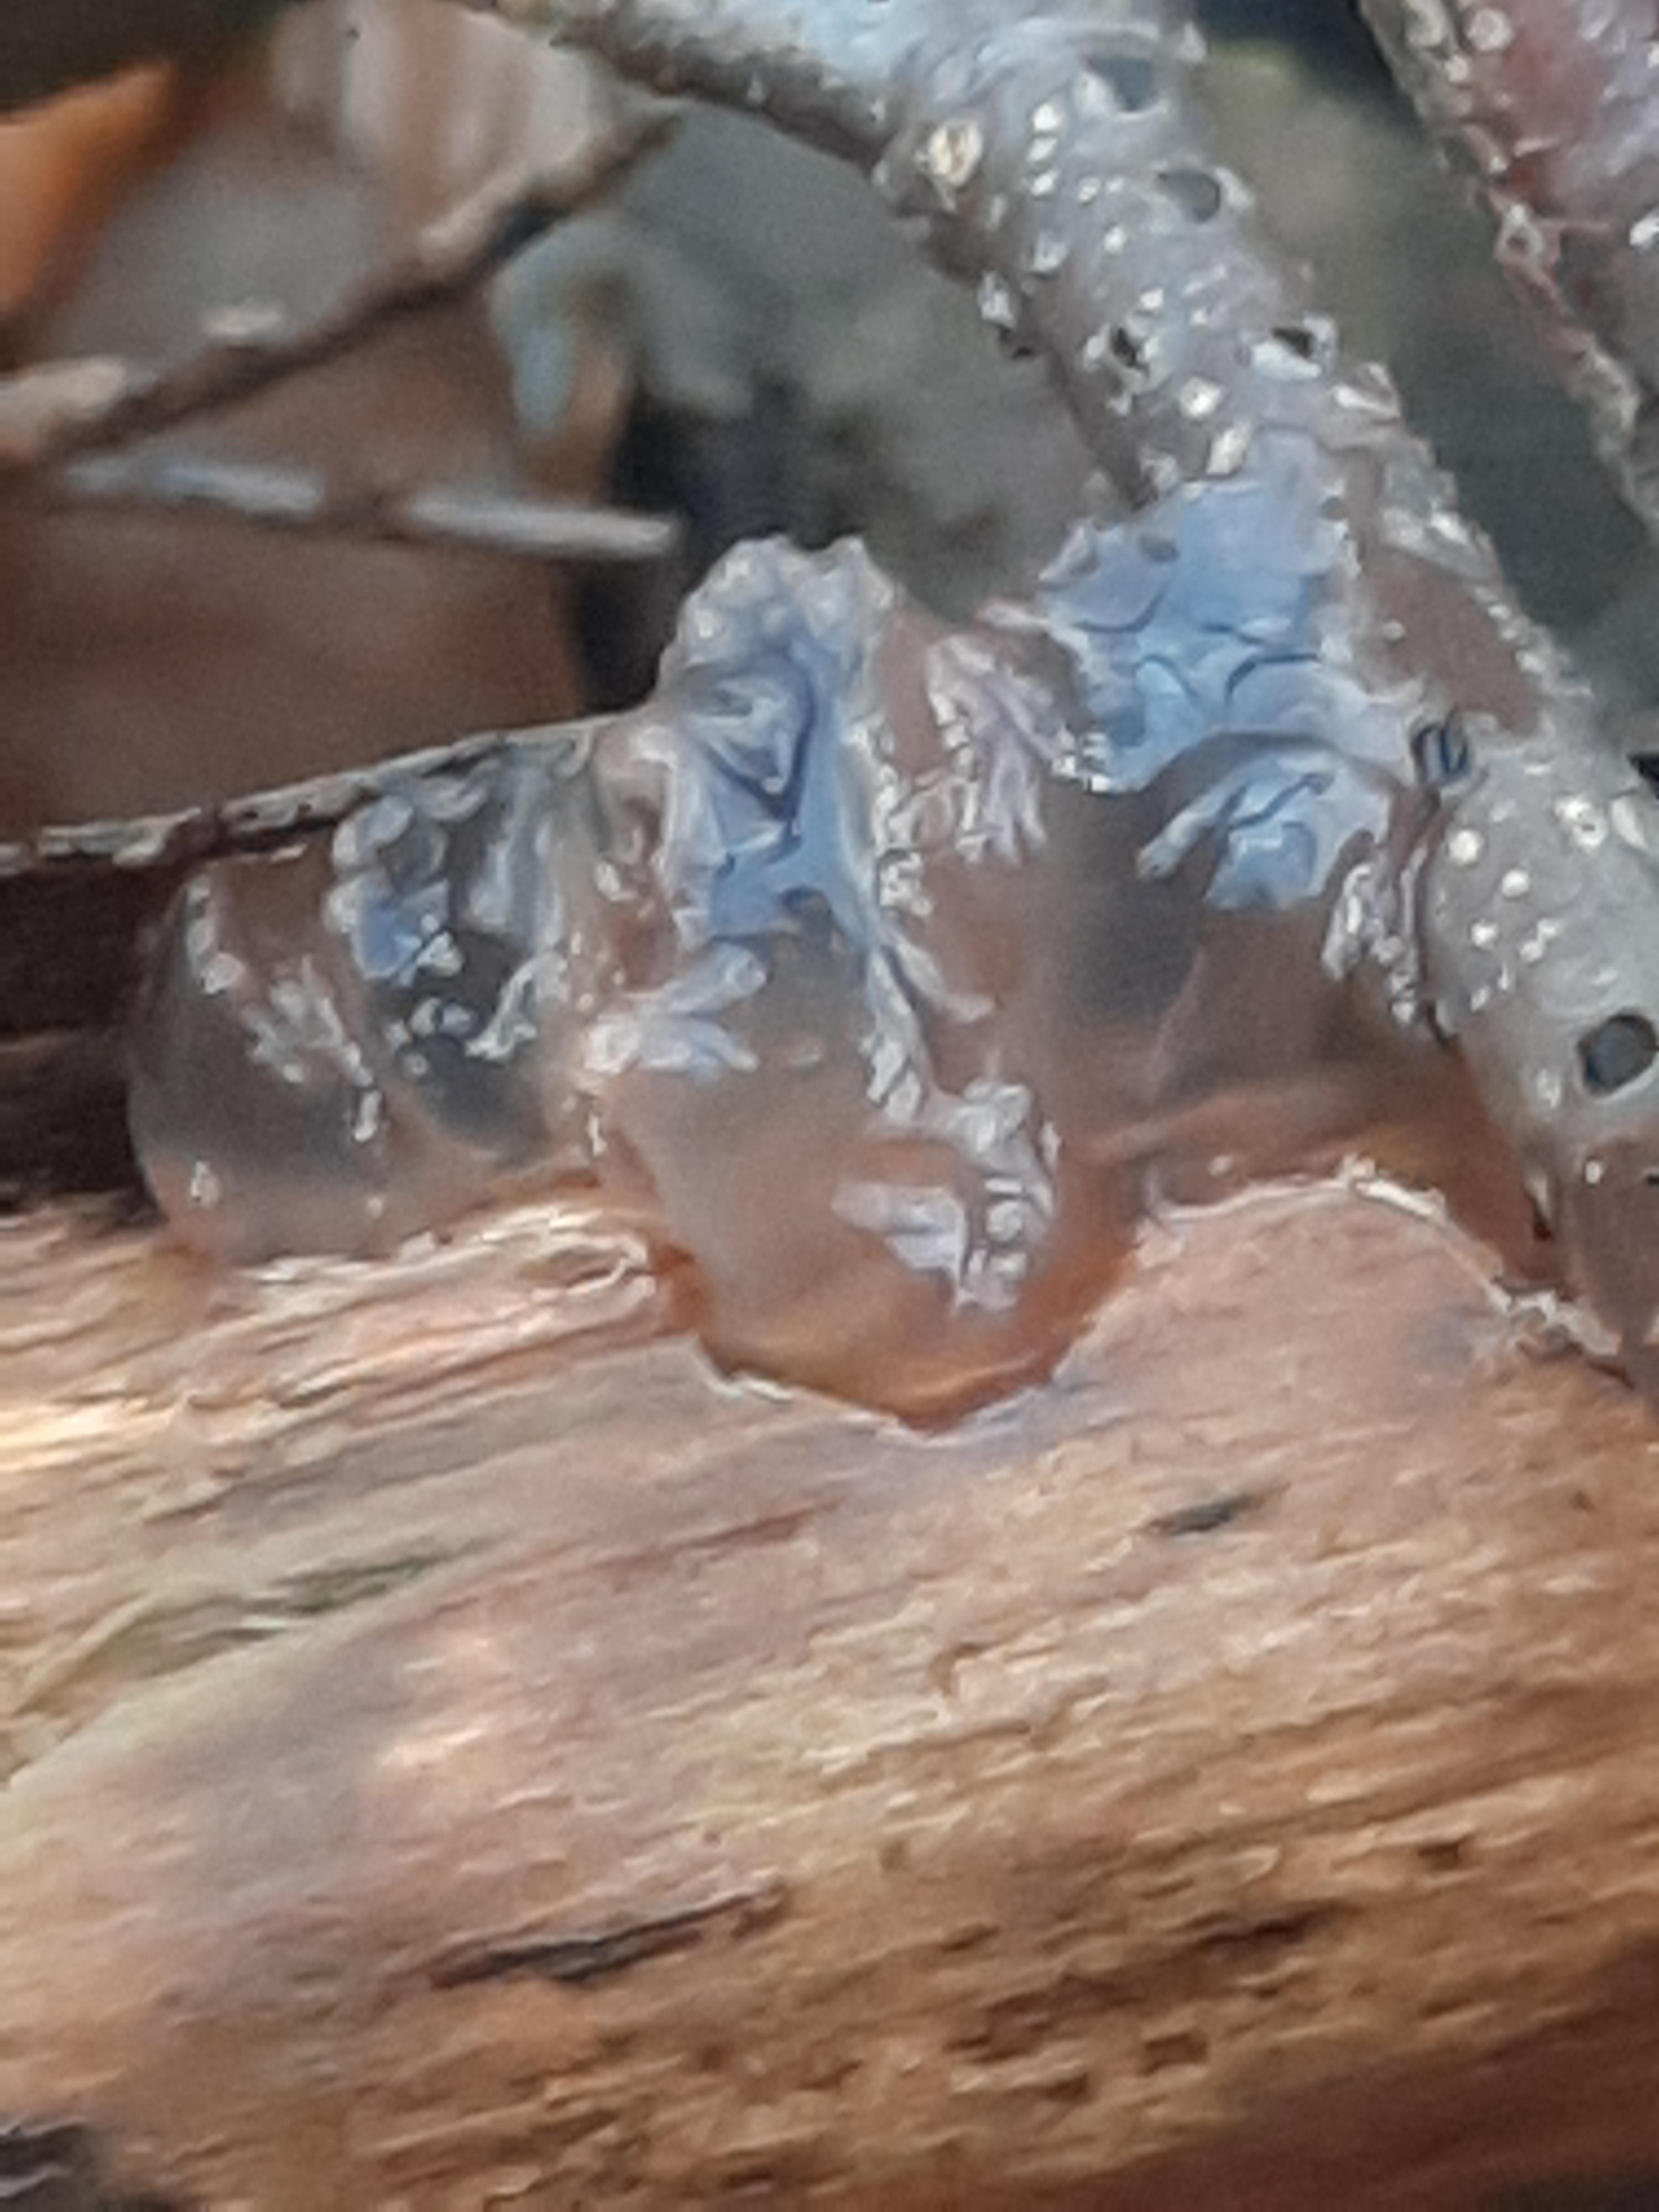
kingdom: Fungi
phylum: Basidiomycota
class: Agaricomycetes
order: Auriculariales
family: Hyaloriaceae
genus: Myxarium
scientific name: Myxarium nucleatum
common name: klar bævretop
